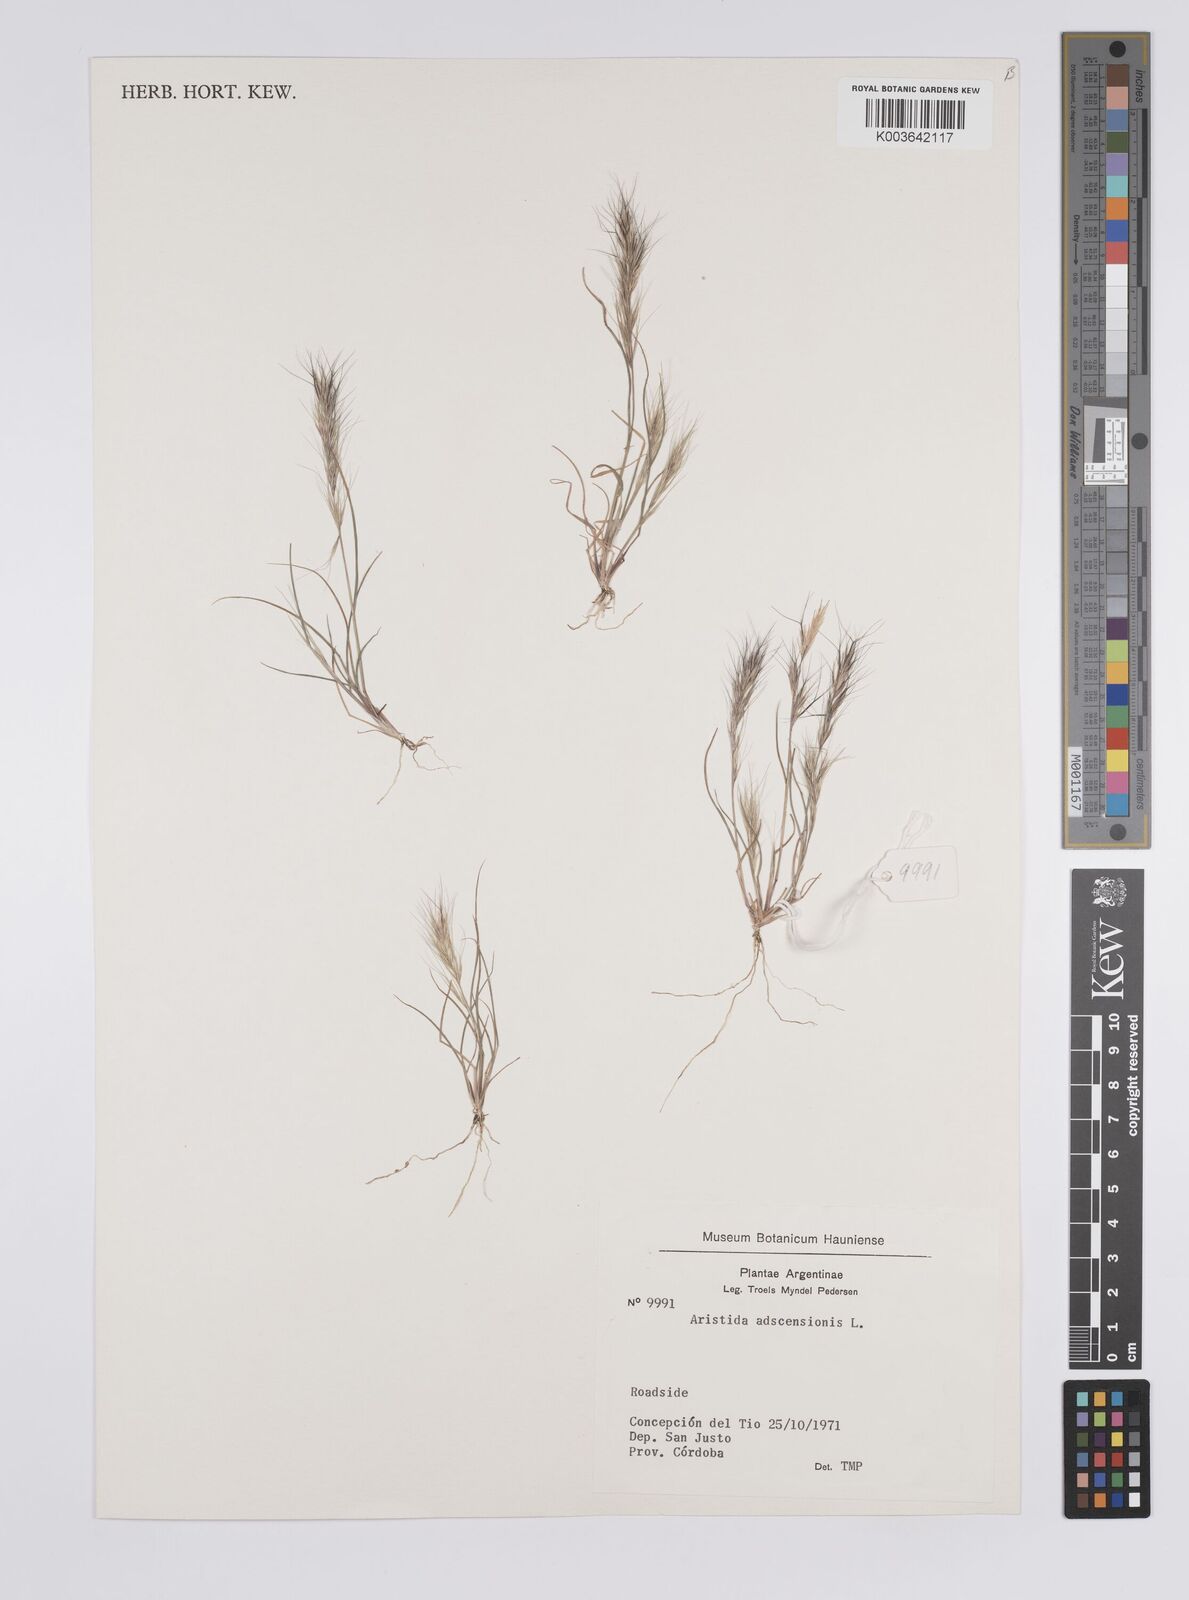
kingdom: Plantae
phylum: Tracheophyta
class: Liliopsida
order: Poales
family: Poaceae
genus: Aristida
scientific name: Aristida adscensionis
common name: Sixweeks threeawn
